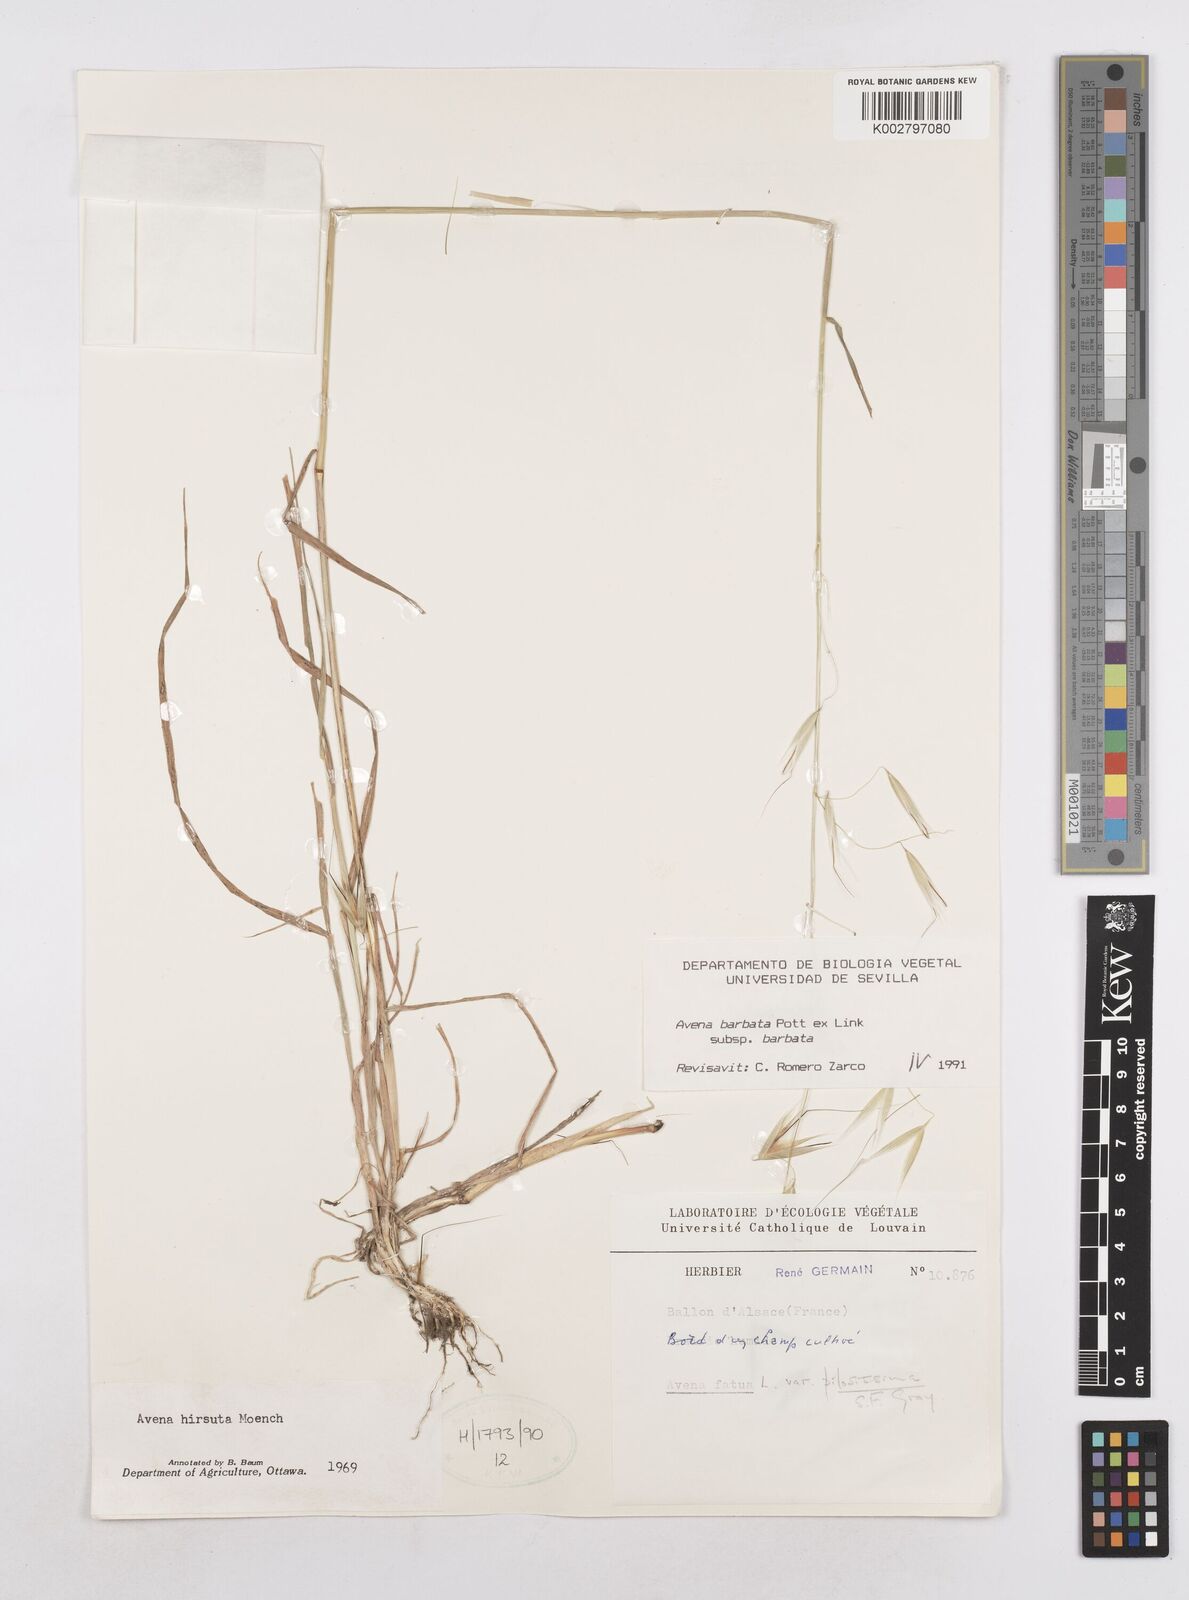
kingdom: Plantae
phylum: Tracheophyta
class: Liliopsida
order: Poales
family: Poaceae
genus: Avena
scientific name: Avena
